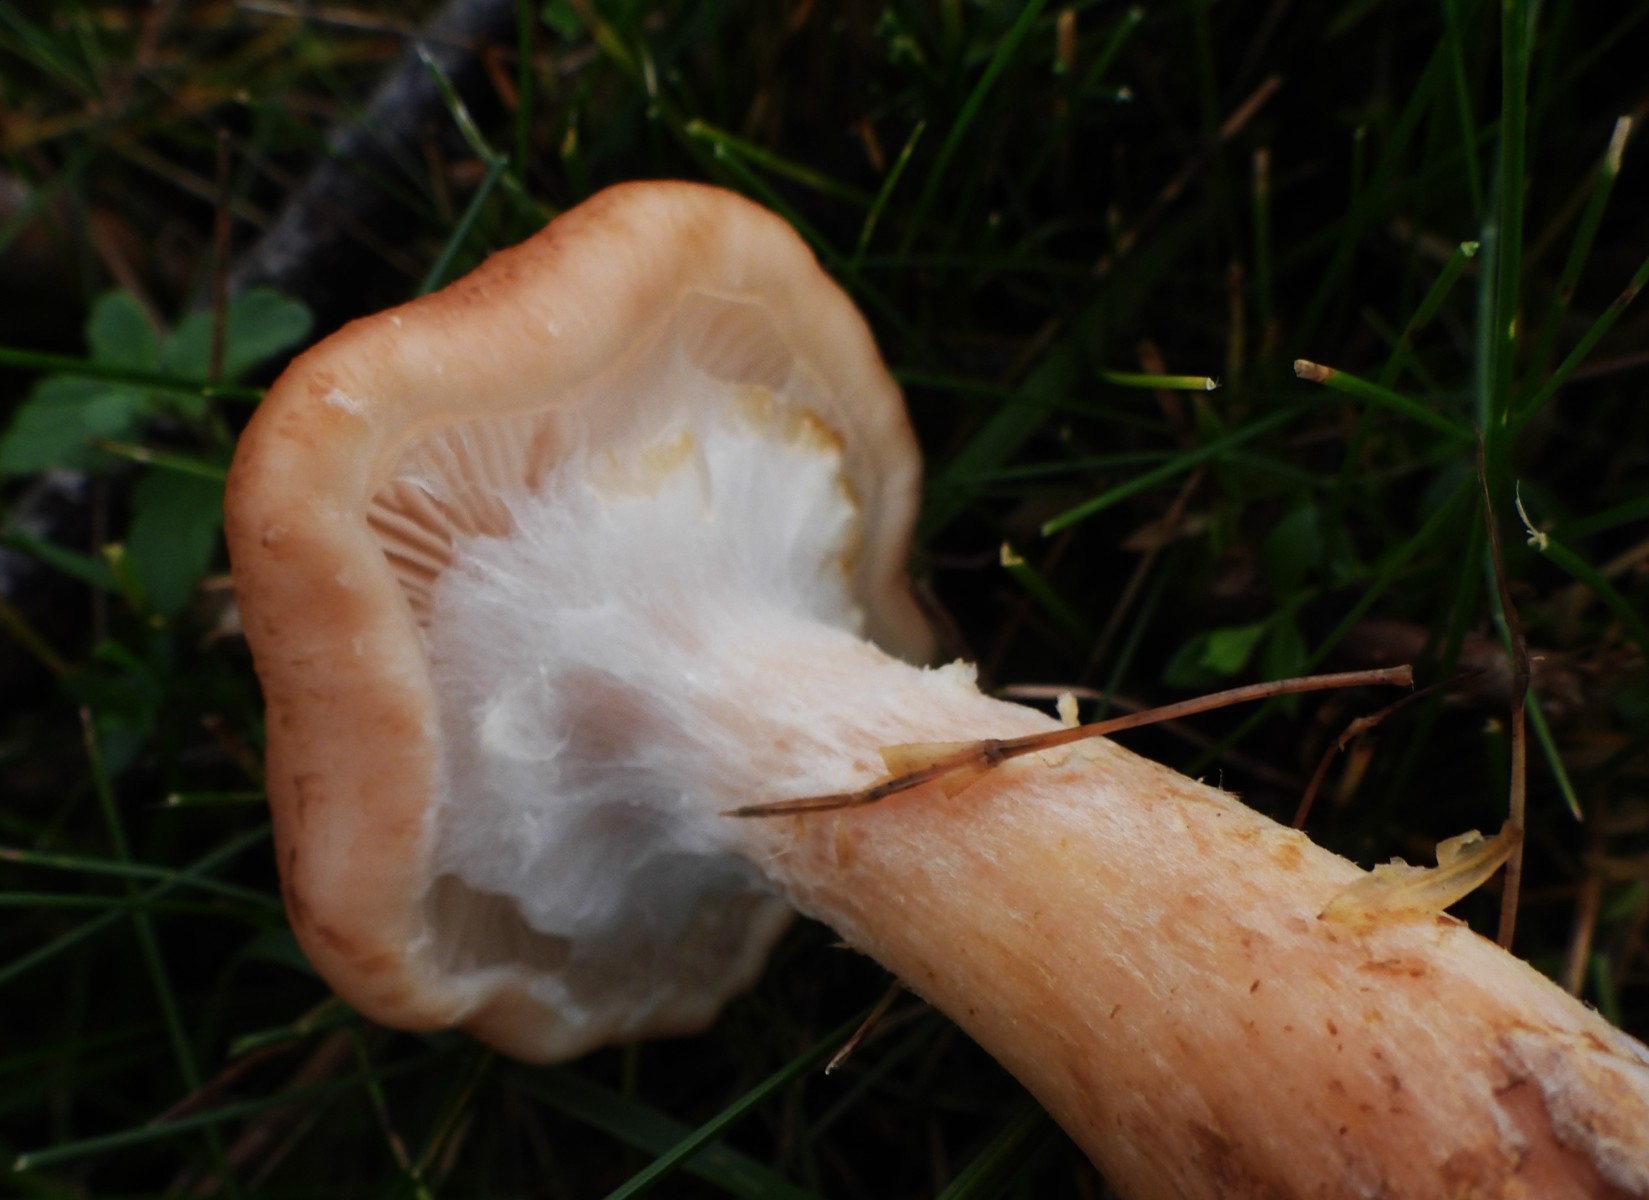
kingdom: Fungi
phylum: Basidiomycota
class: Agaricomycetes
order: Agaricales
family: Physalacriaceae
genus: Armillaria
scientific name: Armillaria lutea
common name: køllestokket honningsvamp
